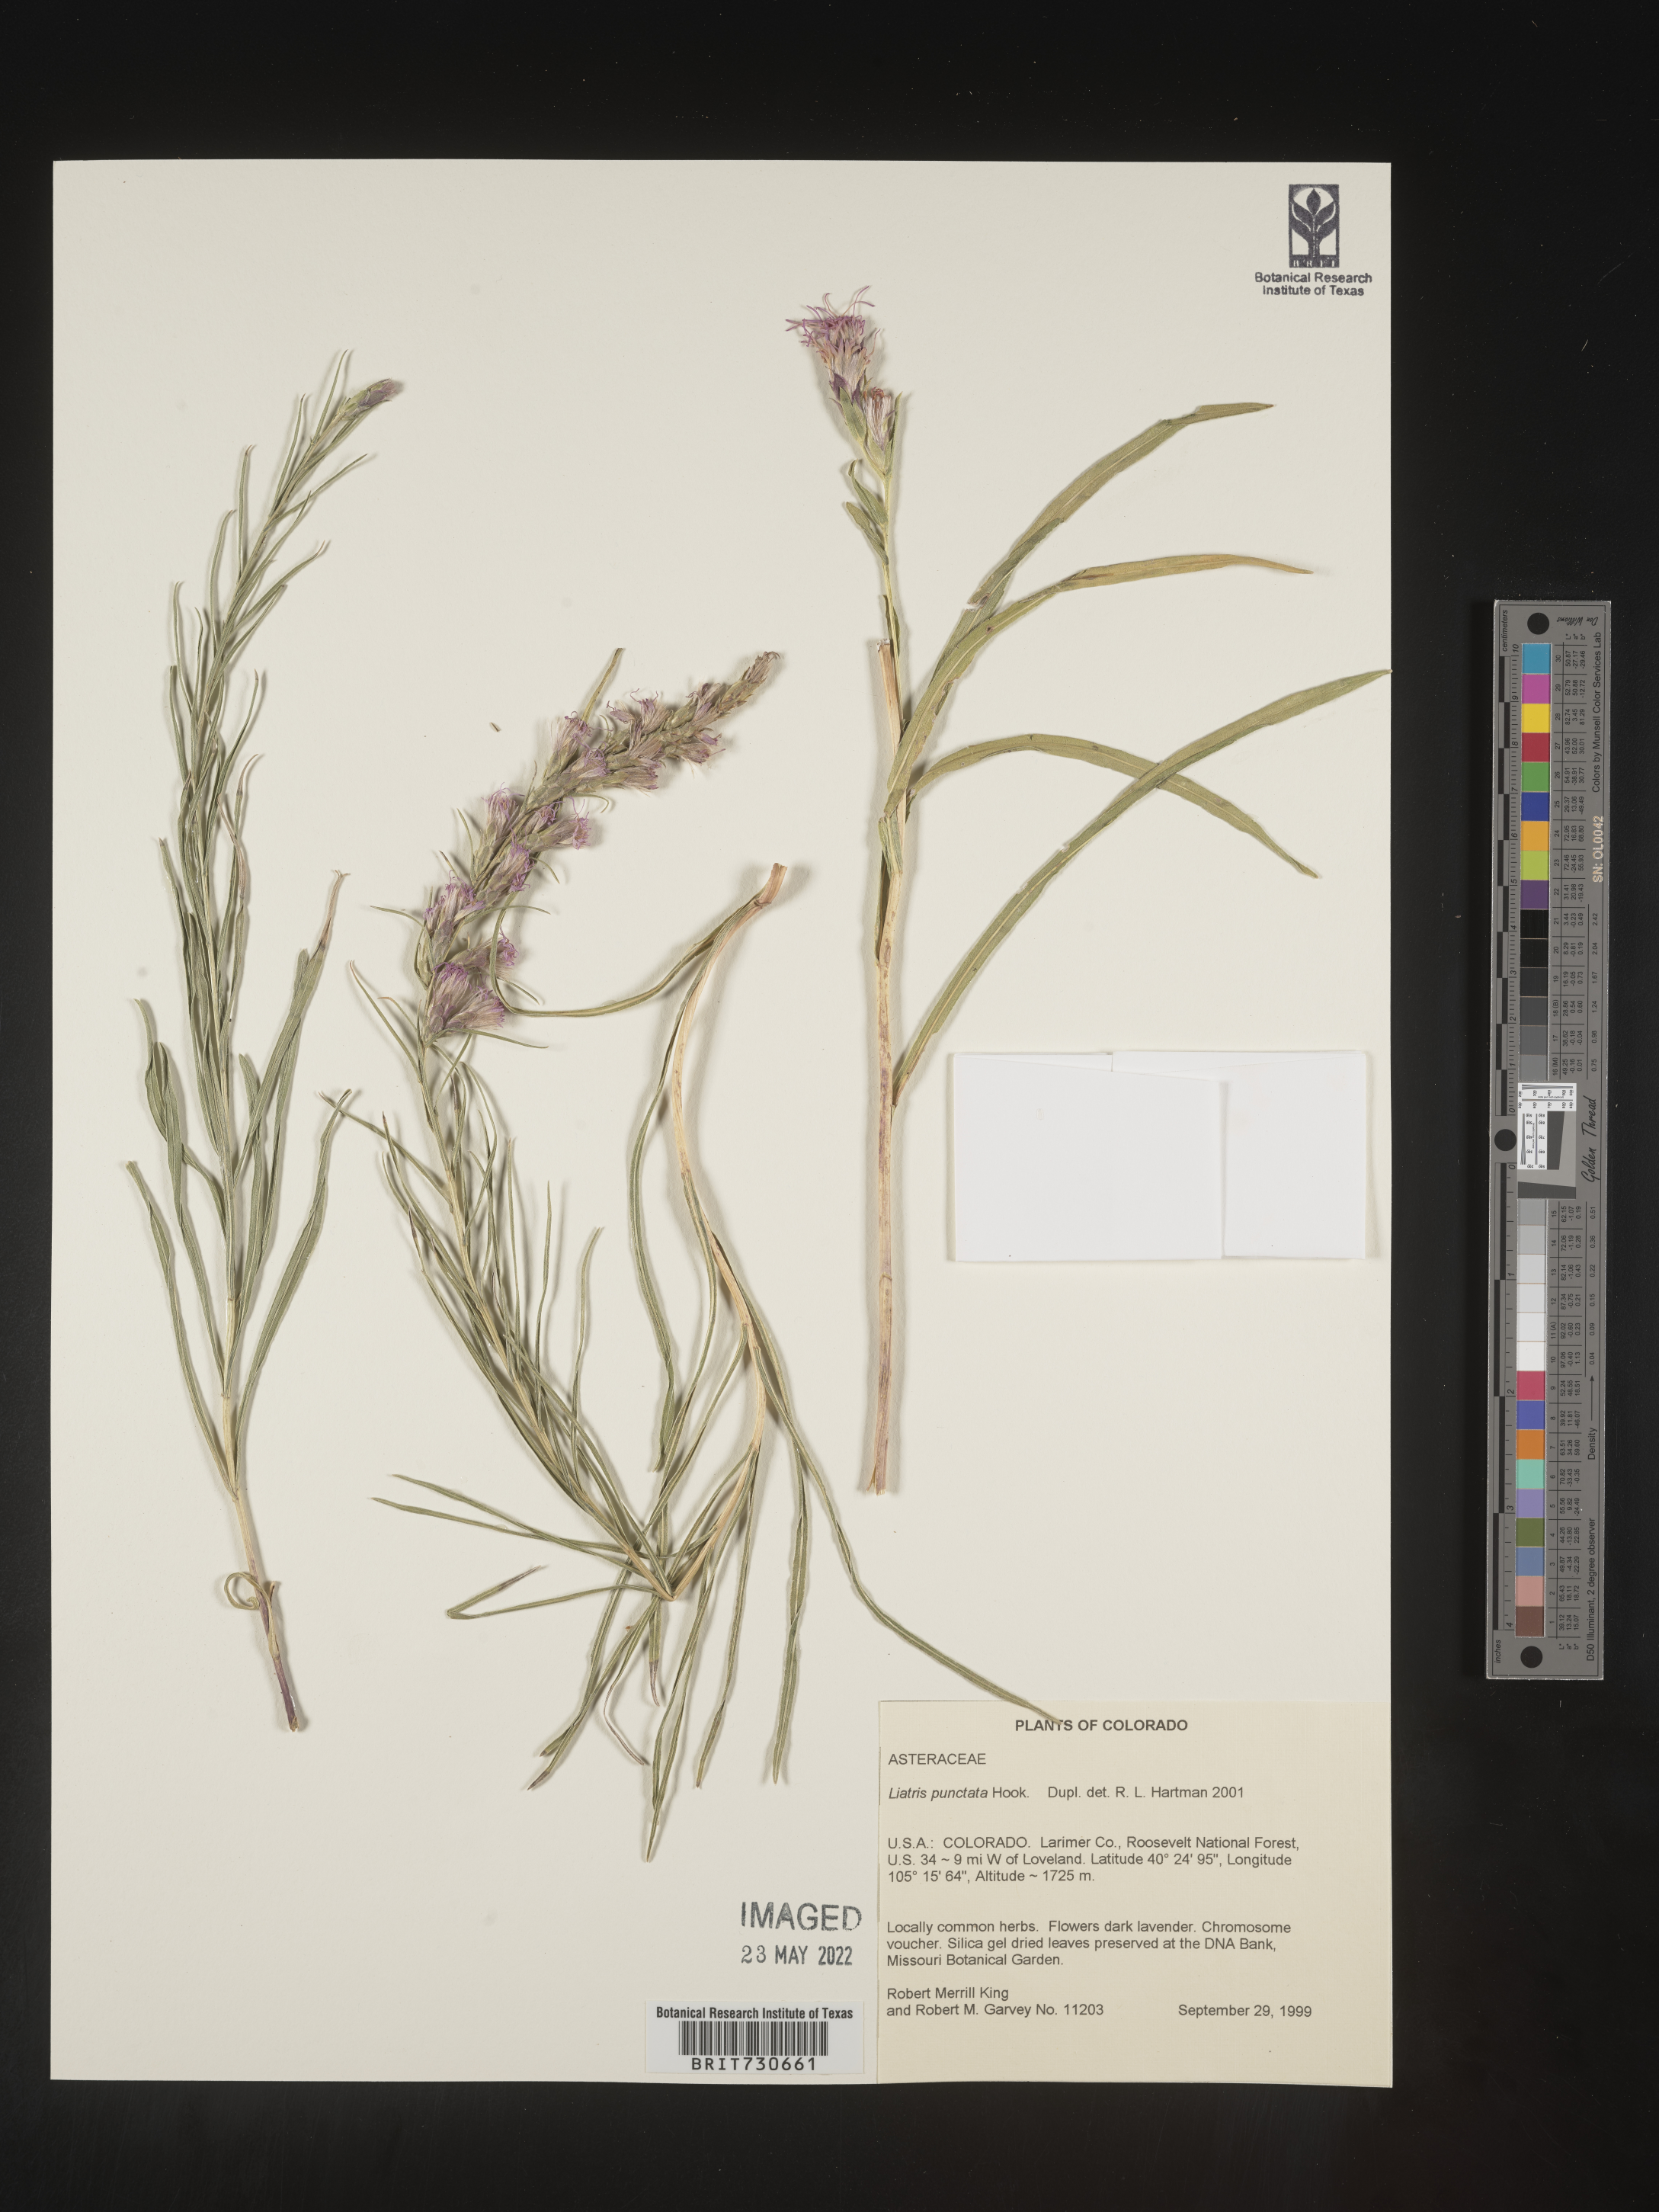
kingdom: Plantae
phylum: Tracheophyta
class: Magnoliopsida
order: Asterales
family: Asteraceae
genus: Liatris
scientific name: Liatris punctata
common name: Dotted gayfeather
